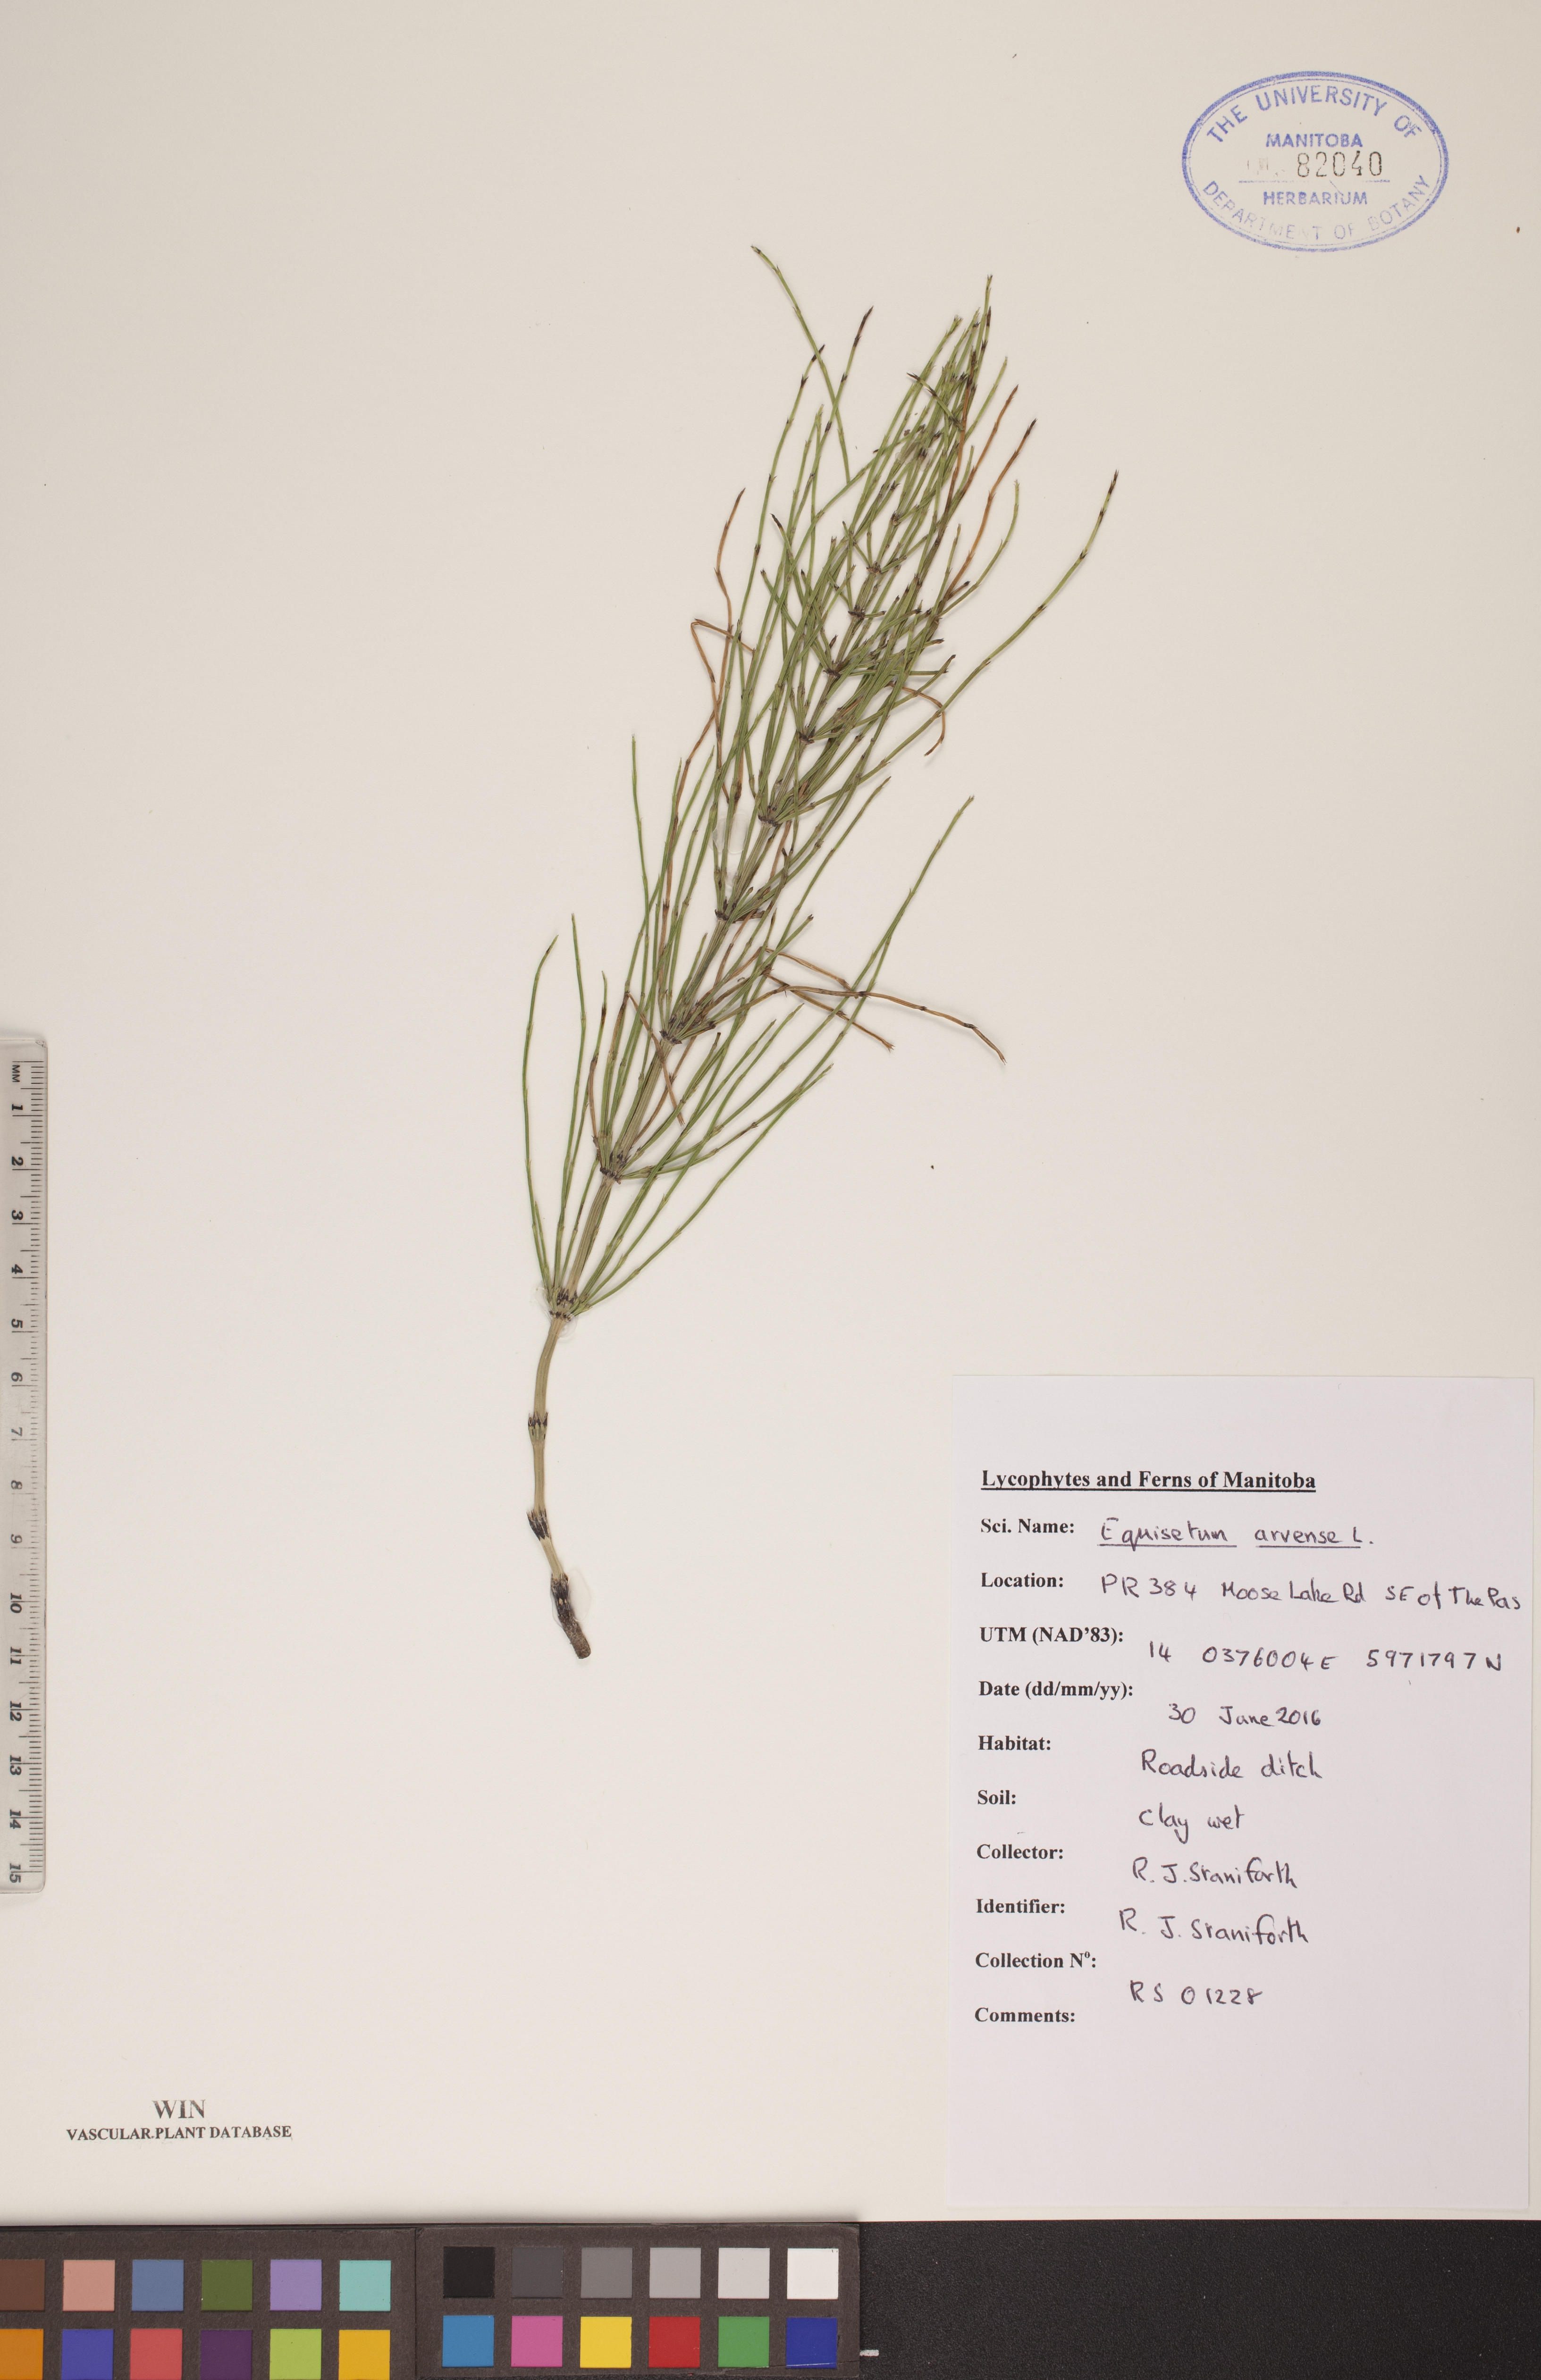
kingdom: Plantae
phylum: Tracheophyta
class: Polypodiopsida
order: Equisetales
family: Equisetaceae
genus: Equisetum
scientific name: Equisetum arvense
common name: Field horsetail
